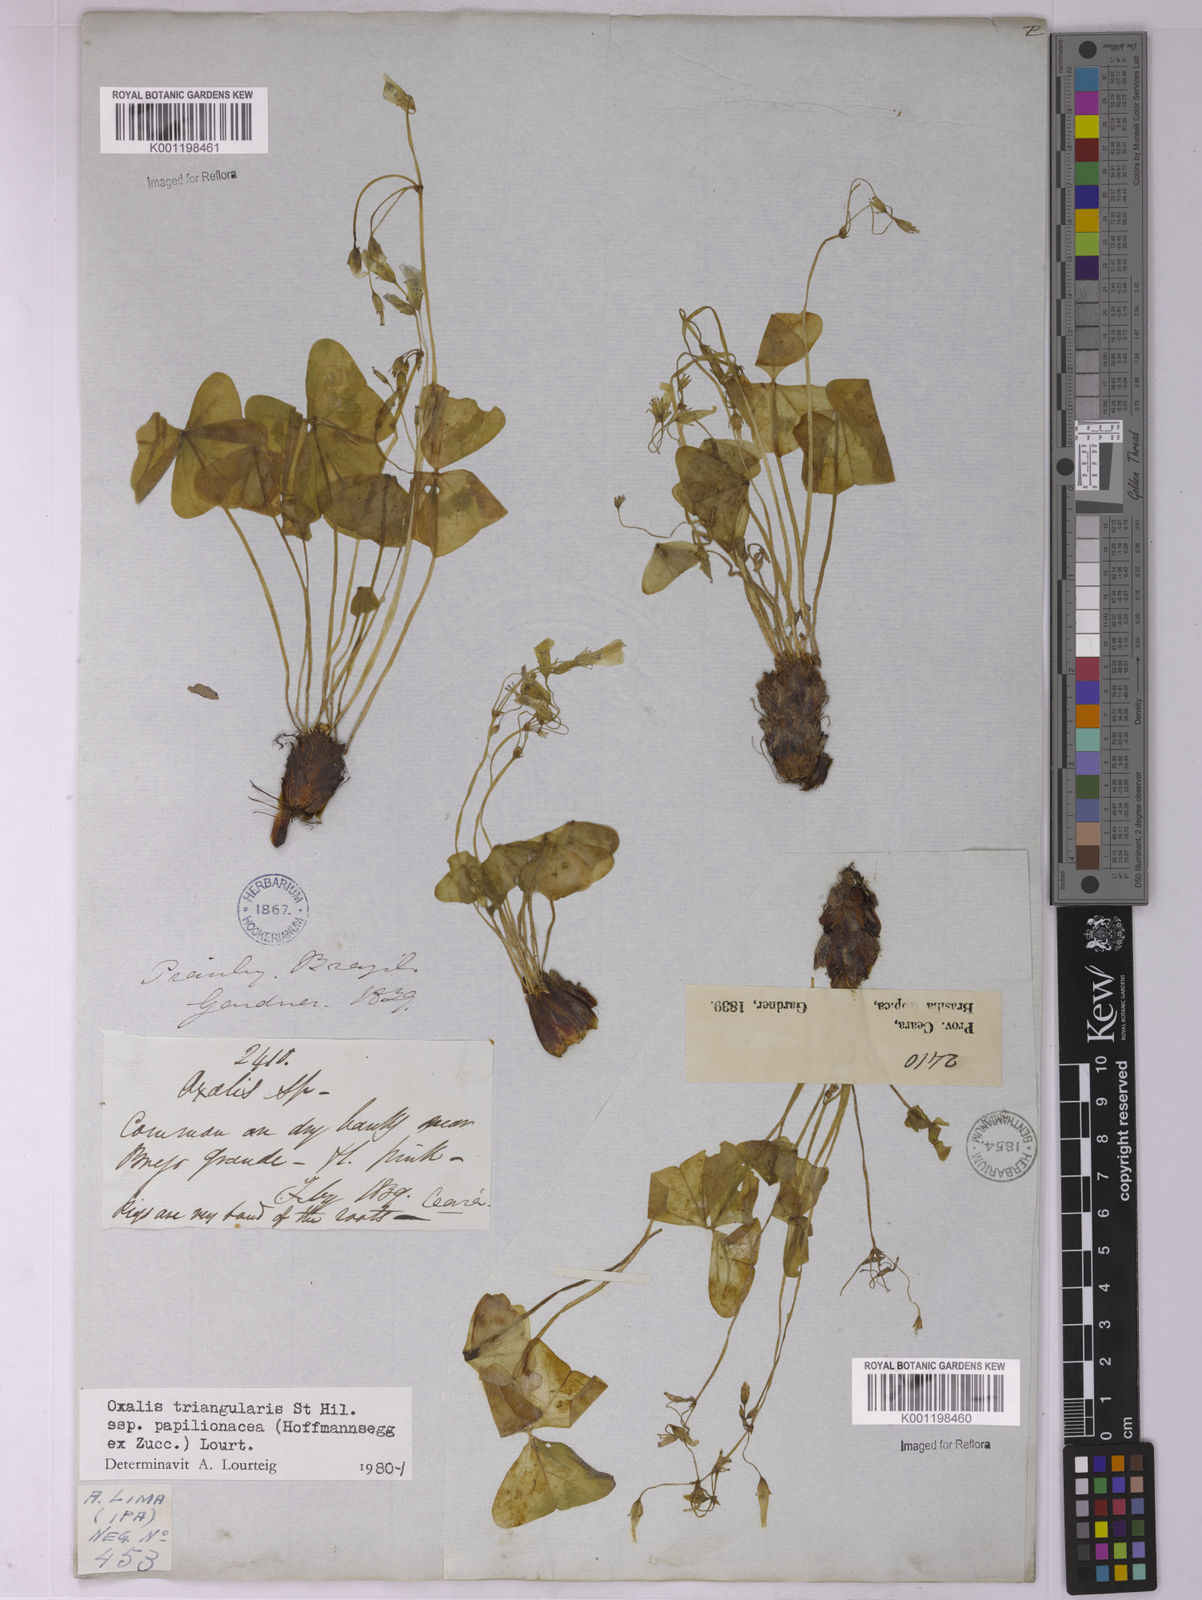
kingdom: Plantae
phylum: Tracheophyta
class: Magnoliopsida
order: Oxalidales
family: Oxalidaceae
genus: Oxalis
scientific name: Oxalis triangularis
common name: Wood sorrel
